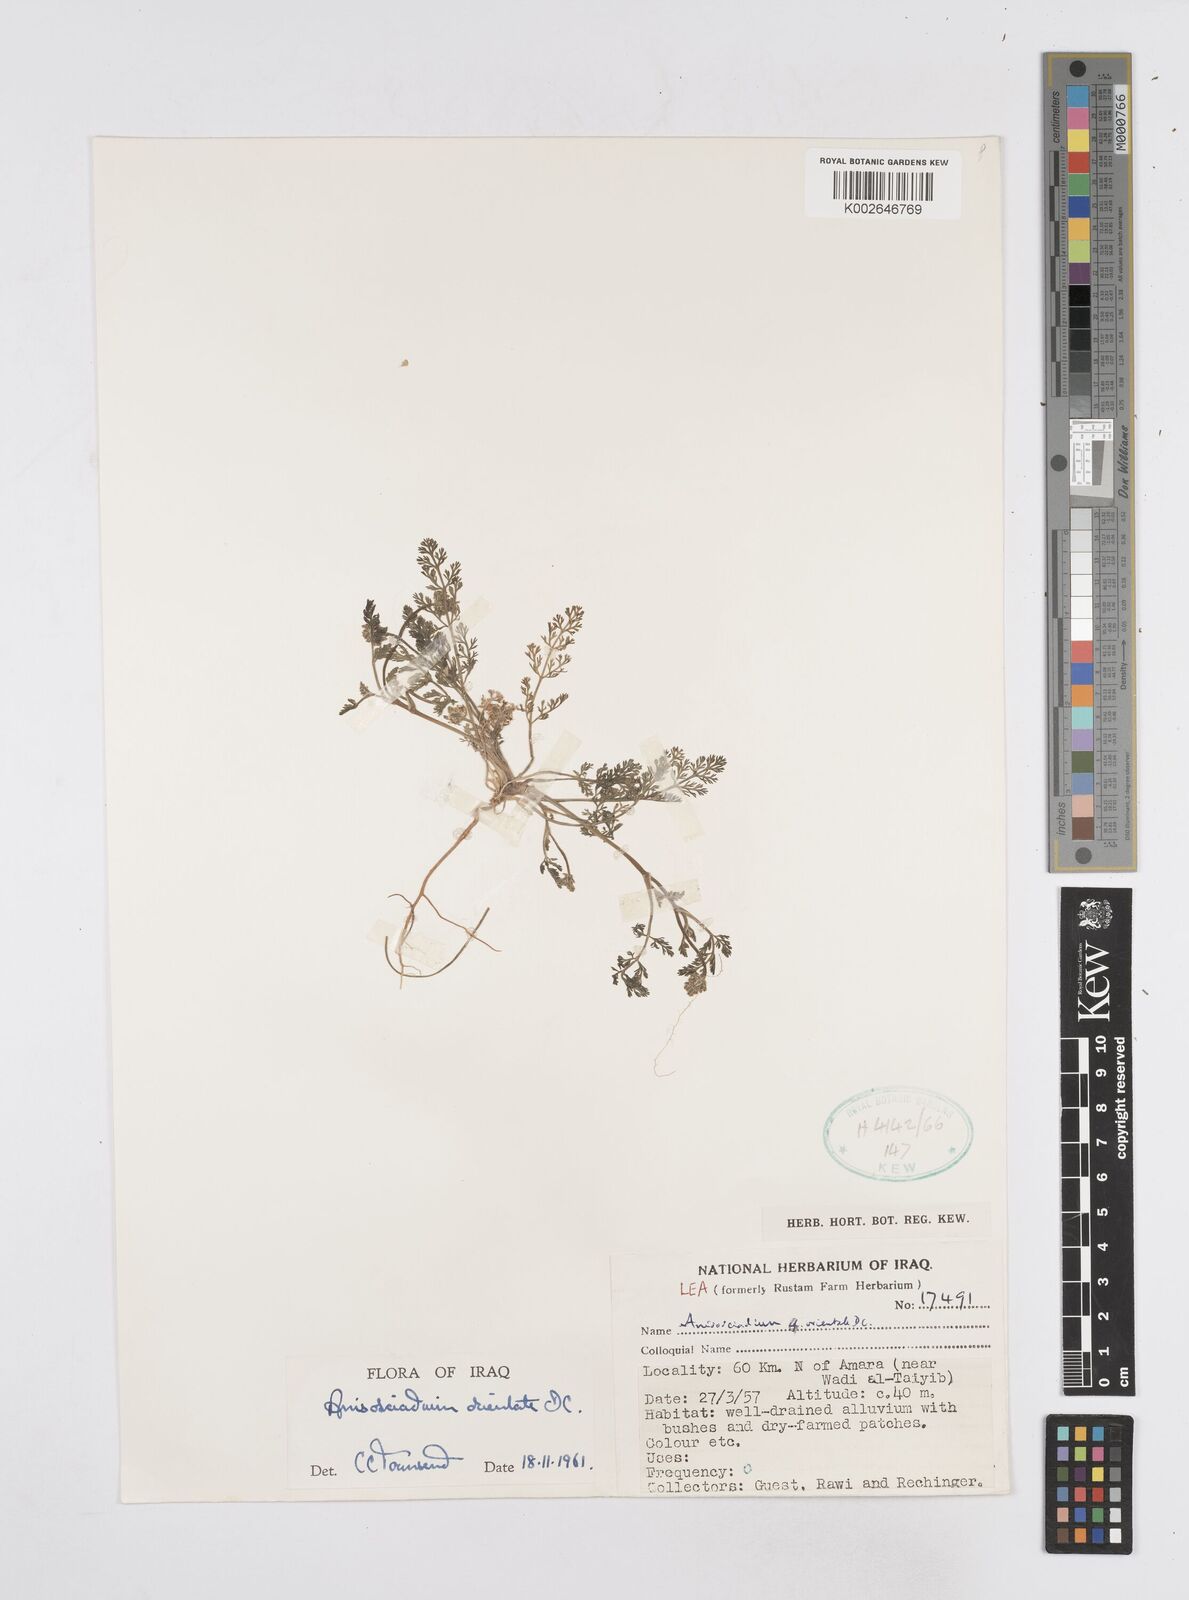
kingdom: Plantae
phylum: Tracheophyta
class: Magnoliopsida
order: Apiales
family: Apiaceae
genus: Anisosciadium
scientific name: Anisosciadium orientale
